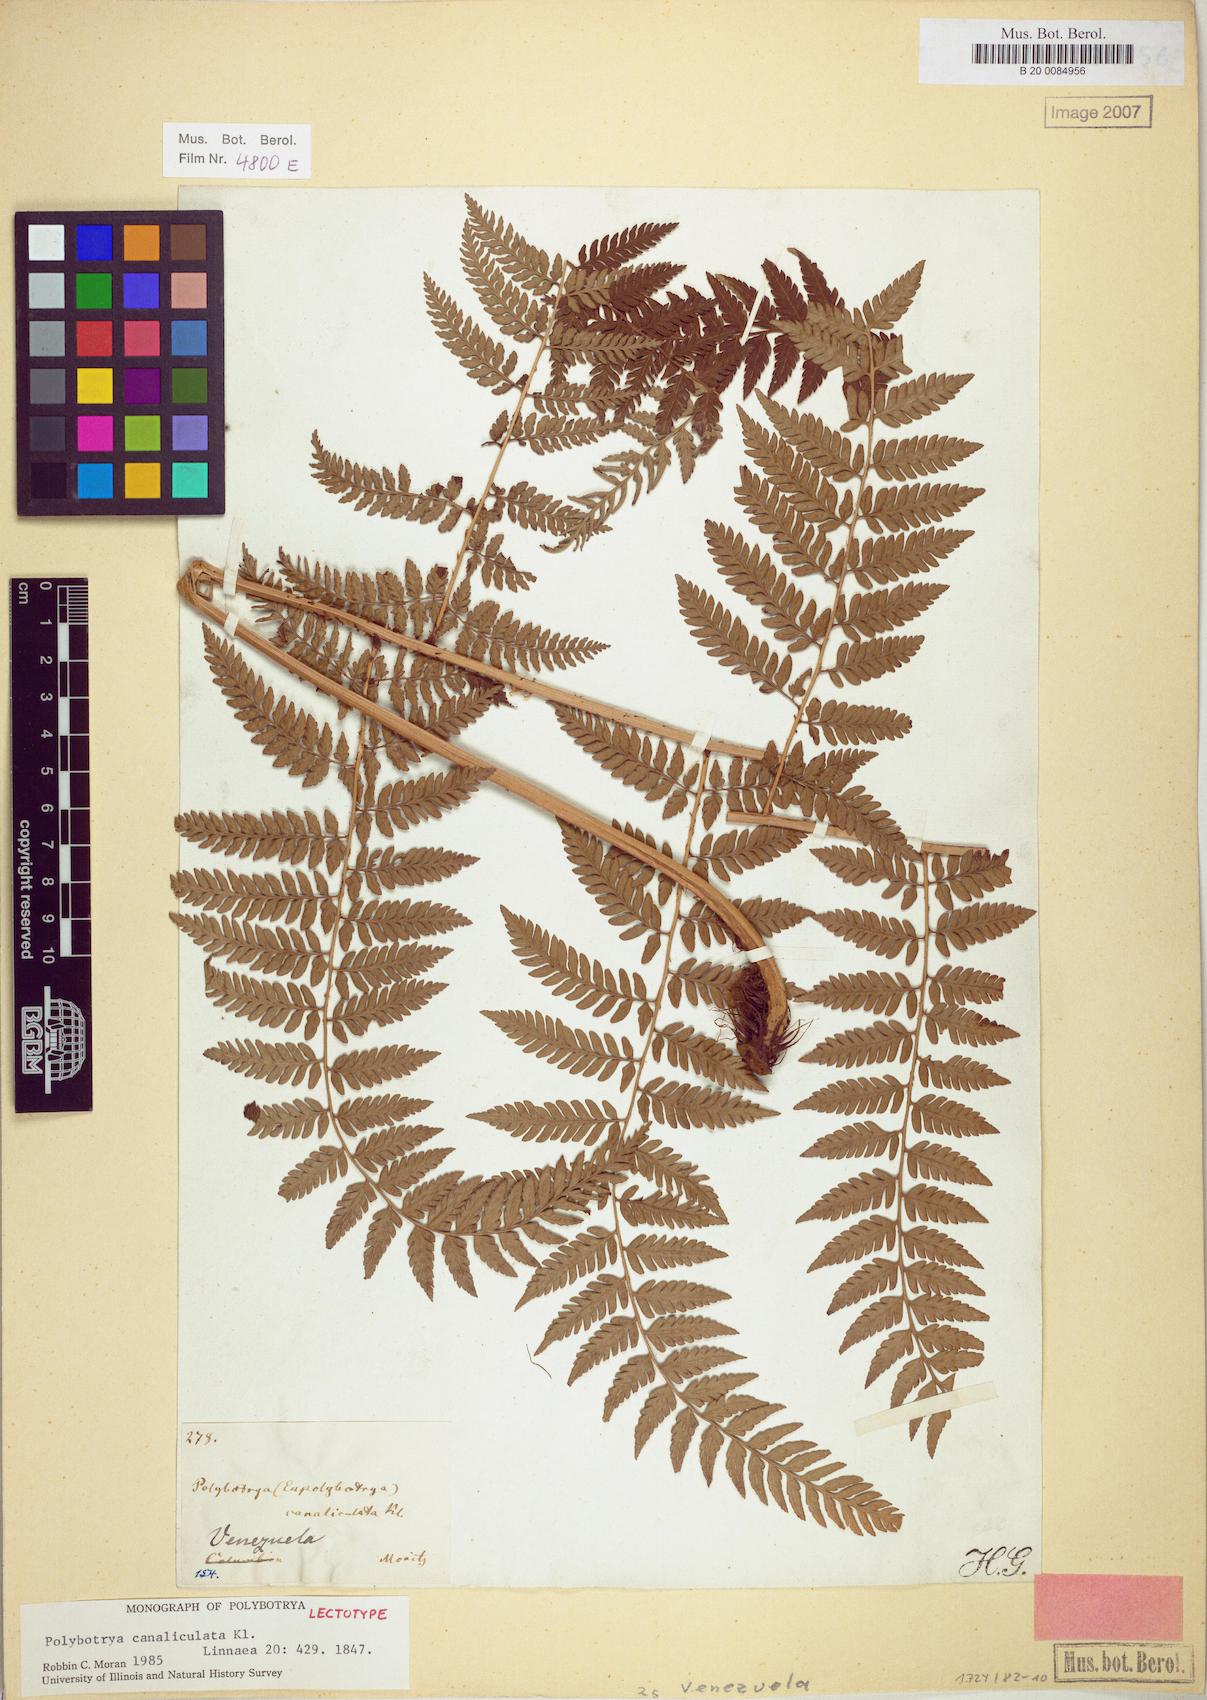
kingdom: Plantae
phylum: Tracheophyta
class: Polypodiopsida
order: Polypodiales
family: Dryopteridaceae
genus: Polybotrya
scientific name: Polybotrya canaliculata
